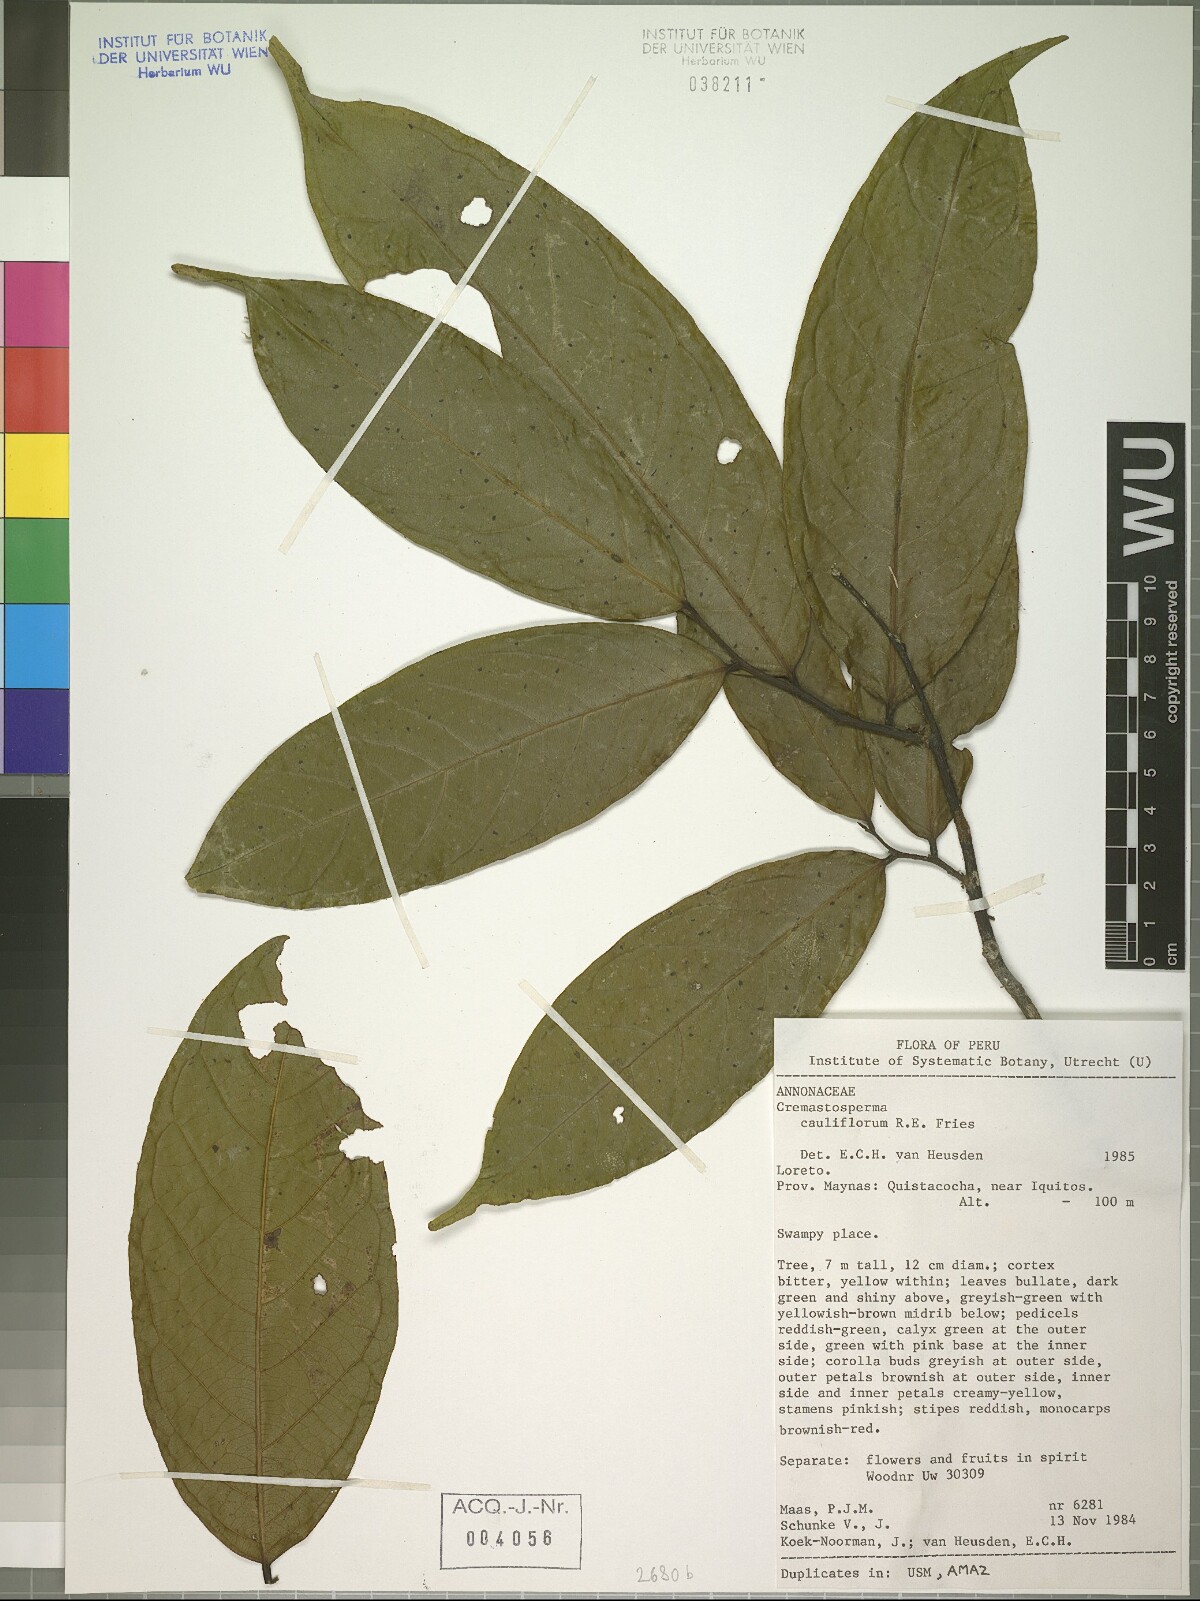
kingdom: Plantae
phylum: Tracheophyta
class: Magnoliopsida
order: Magnoliales
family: Annonaceae
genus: Cremastosperma
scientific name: Cremastosperma microcarpum
